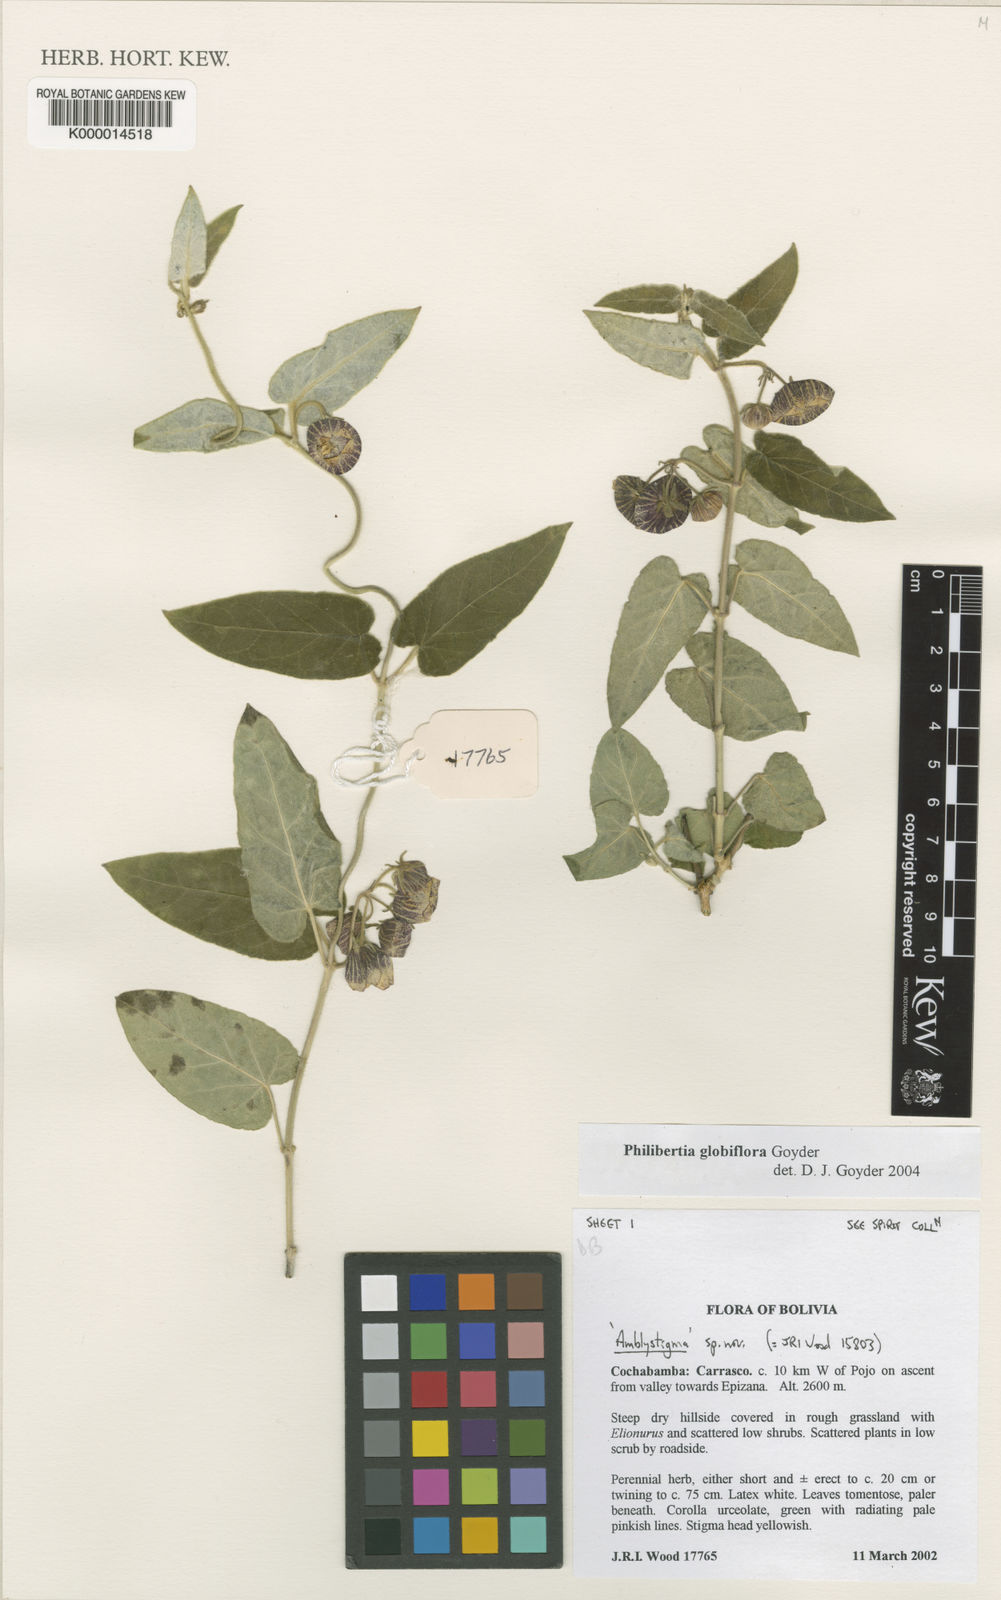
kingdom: Plantae
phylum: Tracheophyta
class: Magnoliopsida
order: Gentianales
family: Apocynaceae
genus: Philibertia
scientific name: Philibertia globiflora
